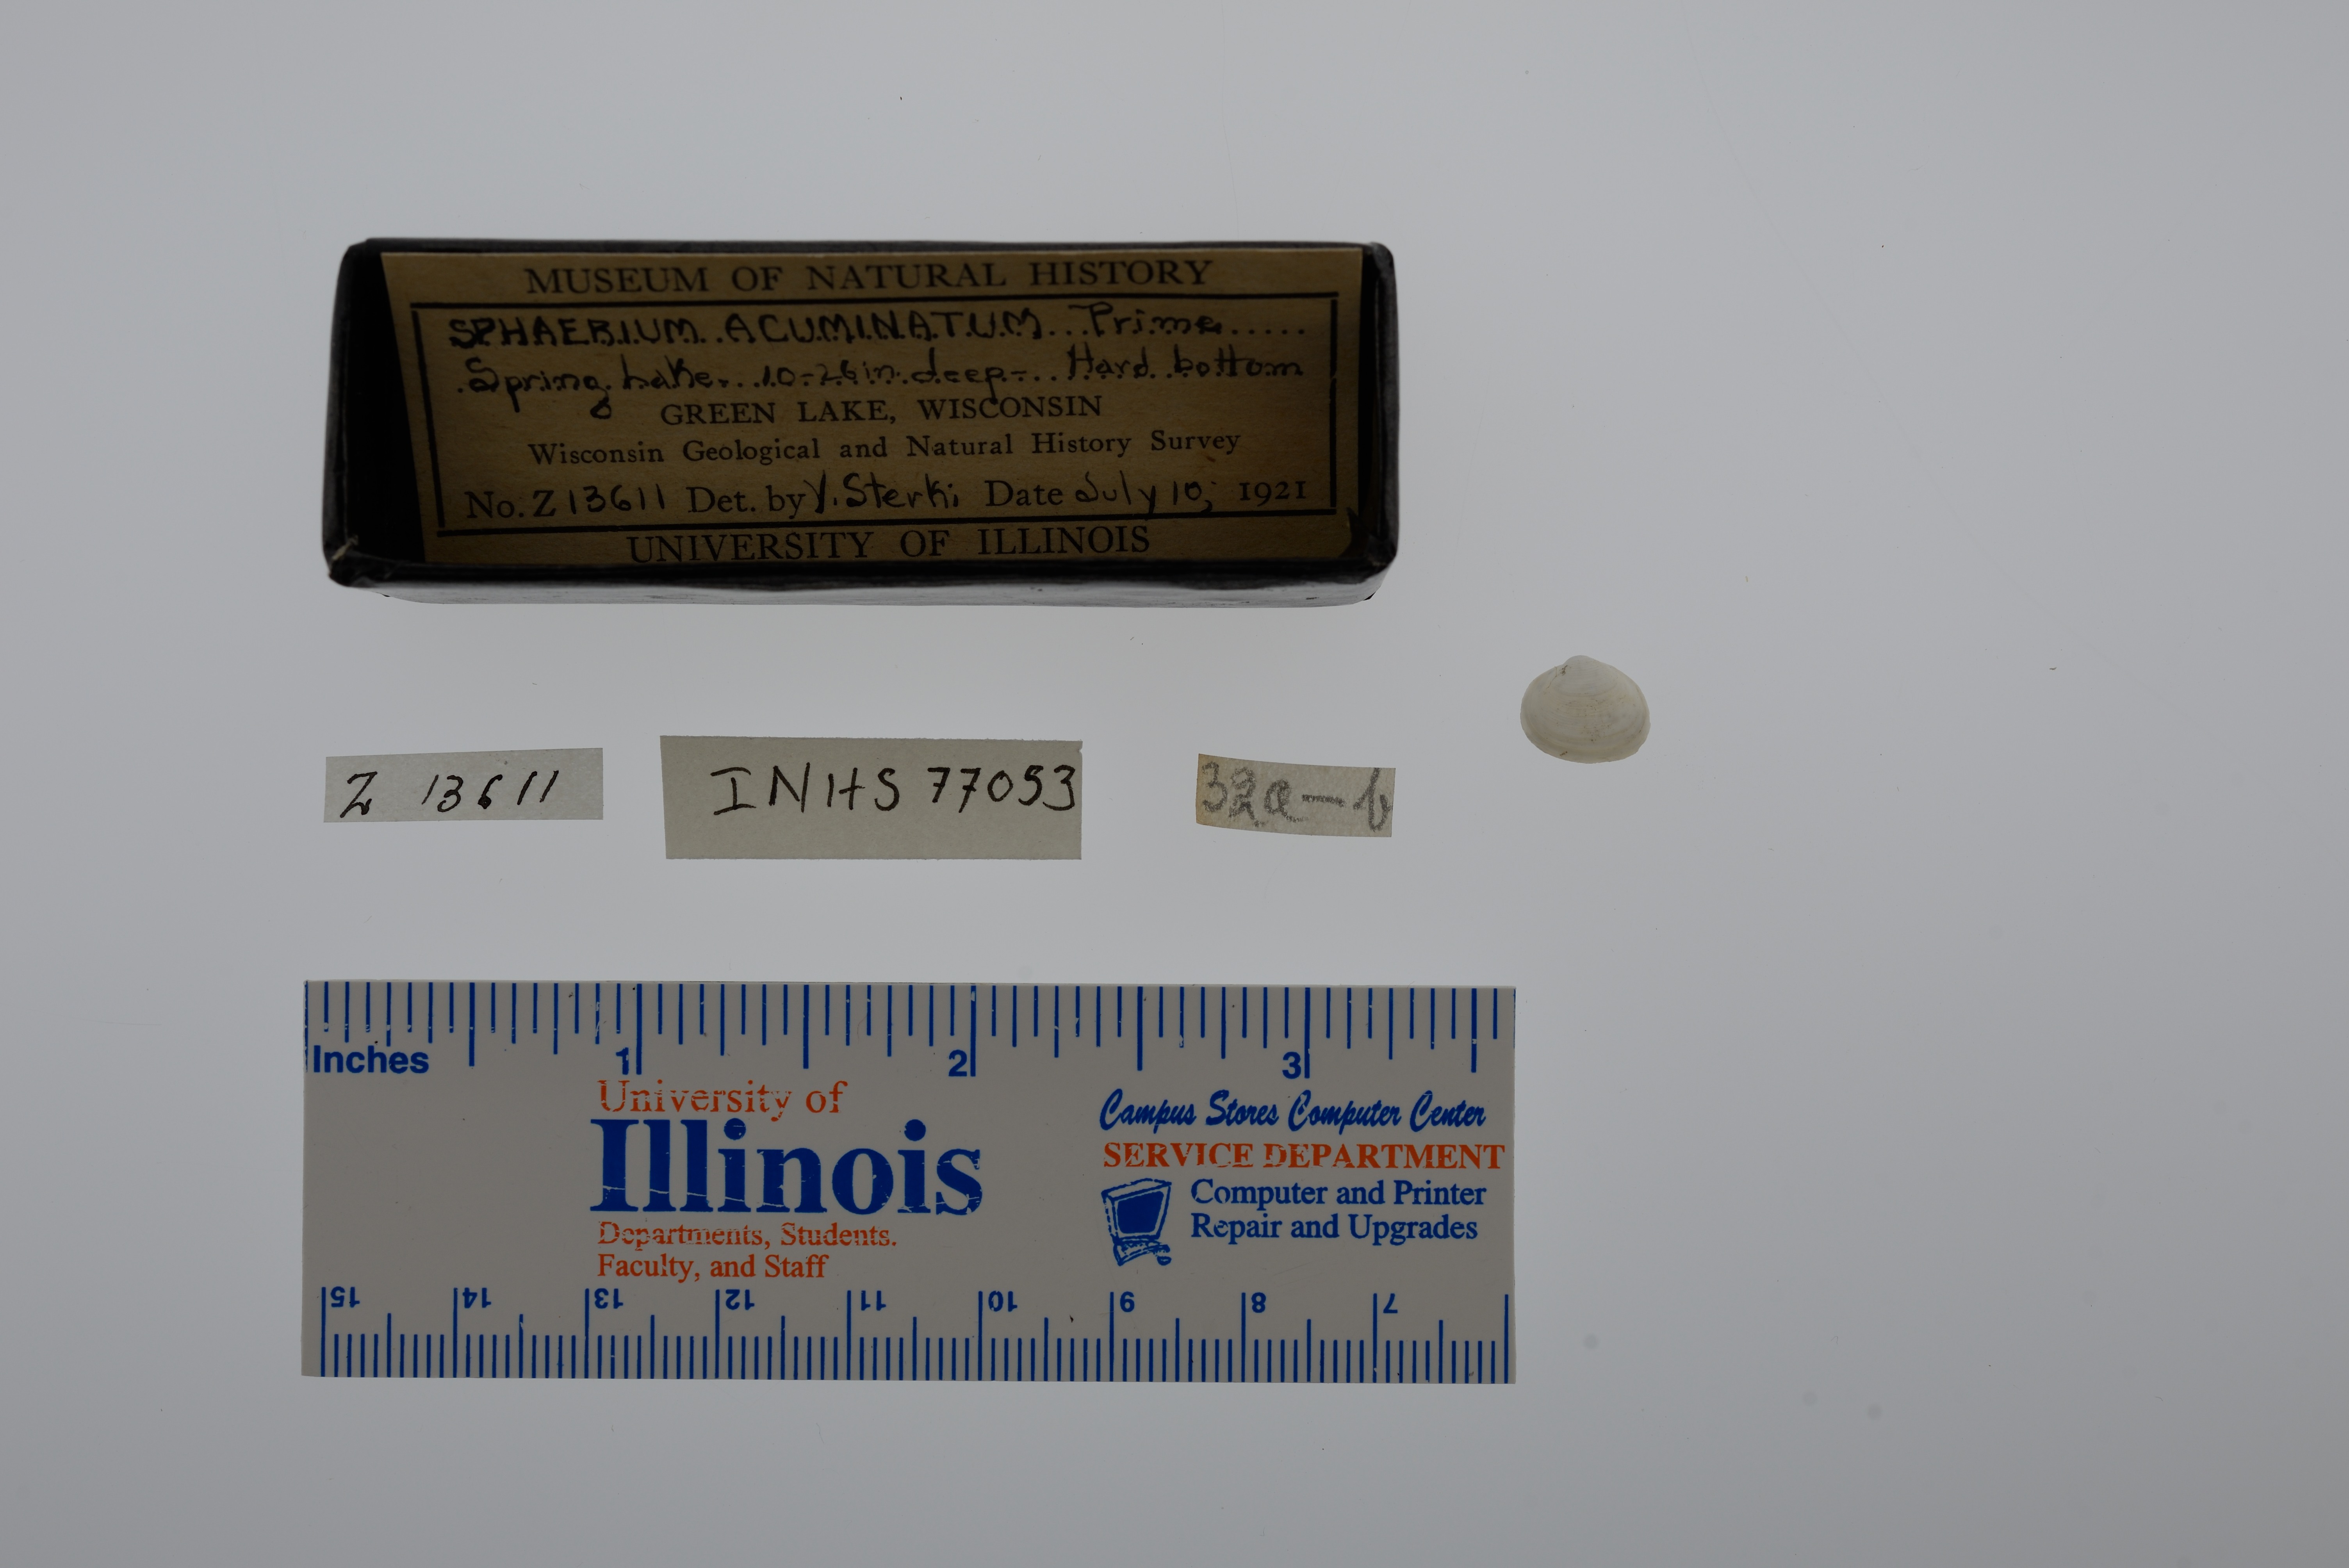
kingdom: Animalia
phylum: Mollusca
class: Bivalvia
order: Sphaeriida
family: Sphaeriidae
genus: Sphaerium
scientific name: Sphaerium striatinum
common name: Striated fingernailclam
